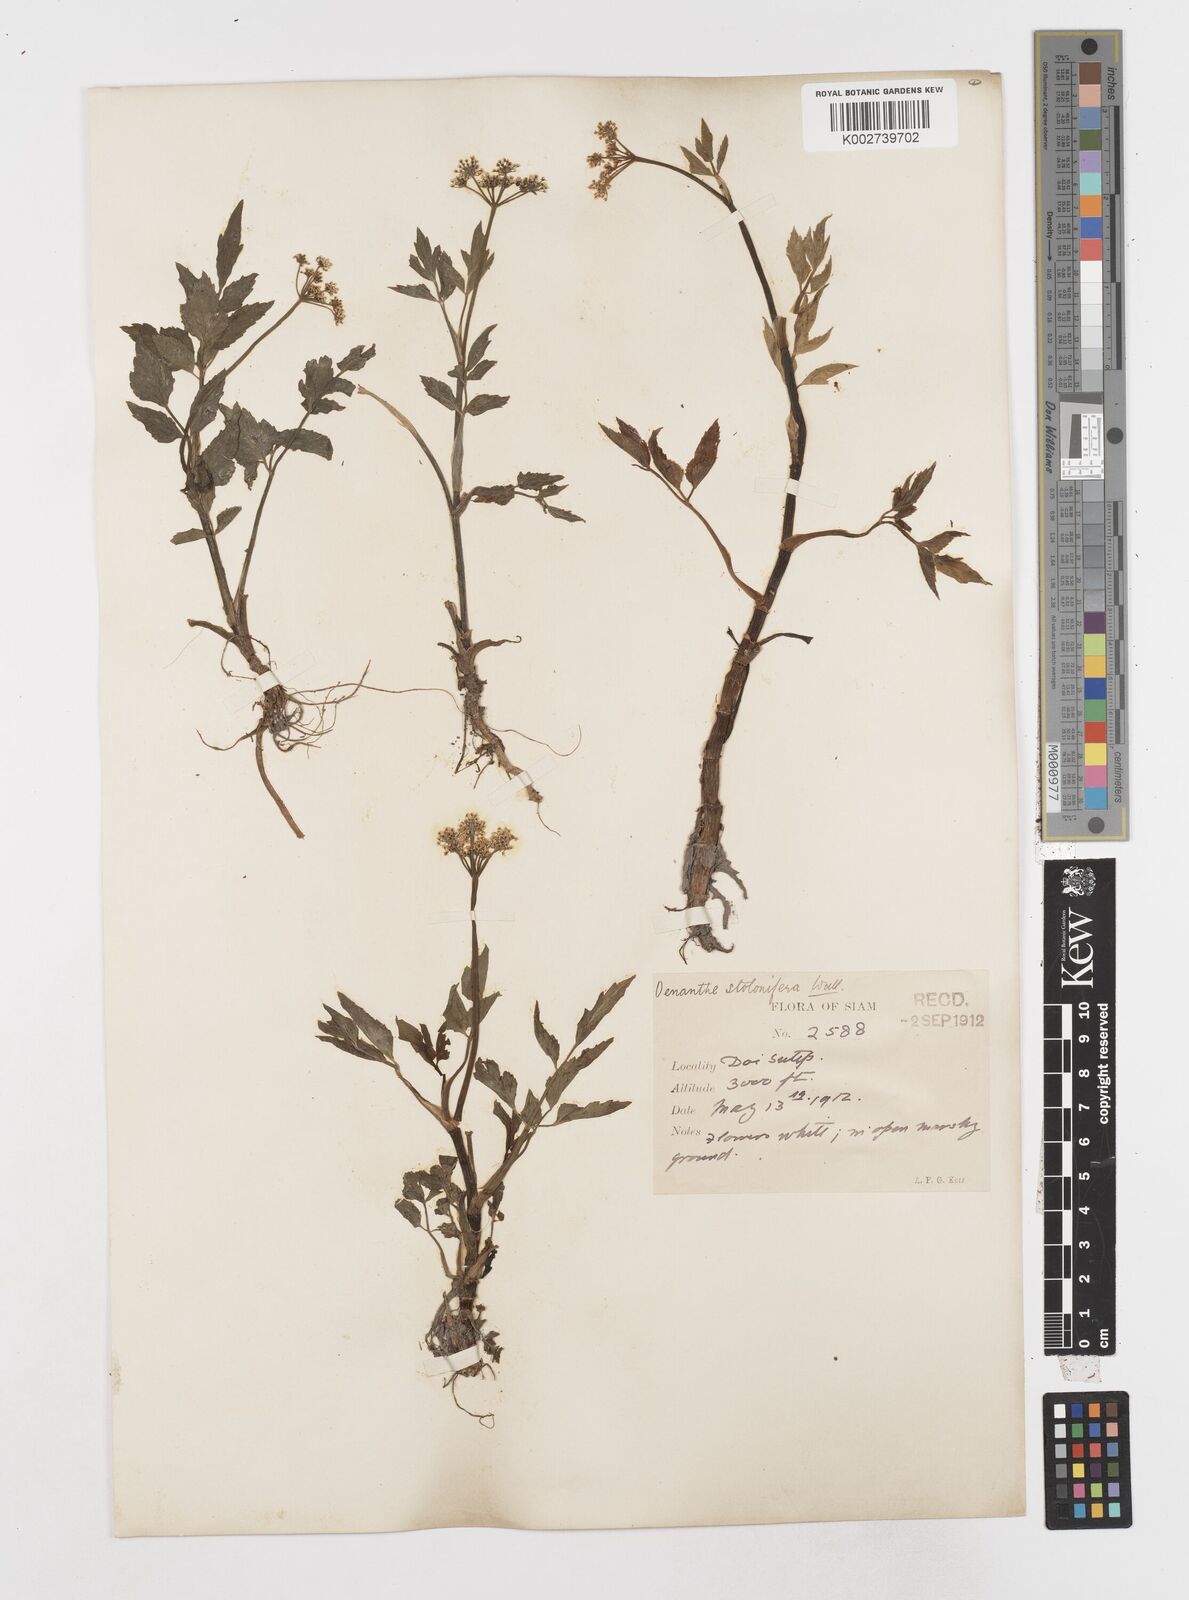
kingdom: Plantae
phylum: Tracheophyta
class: Magnoliopsida
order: Apiales
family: Apiaceae
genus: Oenanthe
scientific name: Oenanthe javanica
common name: Java water-dropwort
